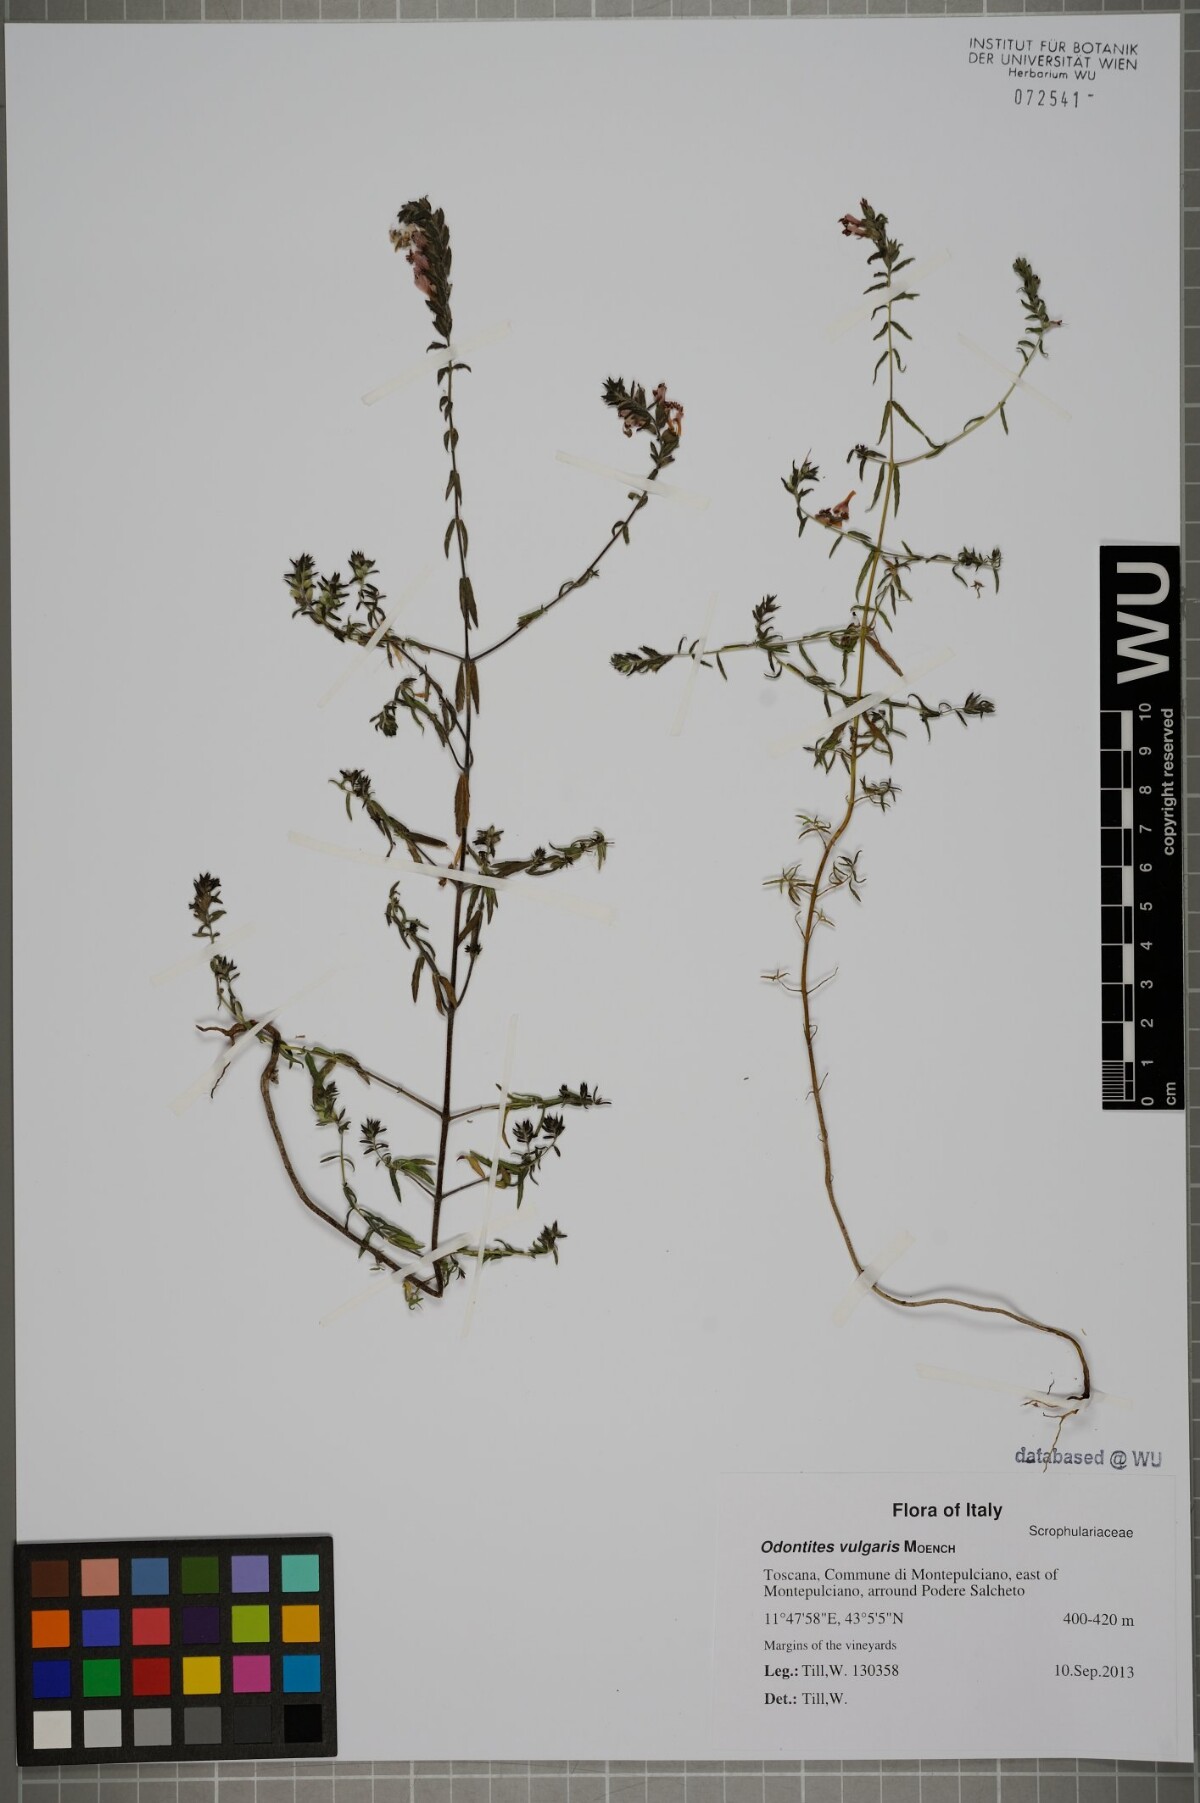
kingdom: Plantae
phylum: Tracheophyta
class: Magnoliopsida
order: Lamiales
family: Orobanchaceae
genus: Odontites
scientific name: Odontites vulgaris
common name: Broomrape
